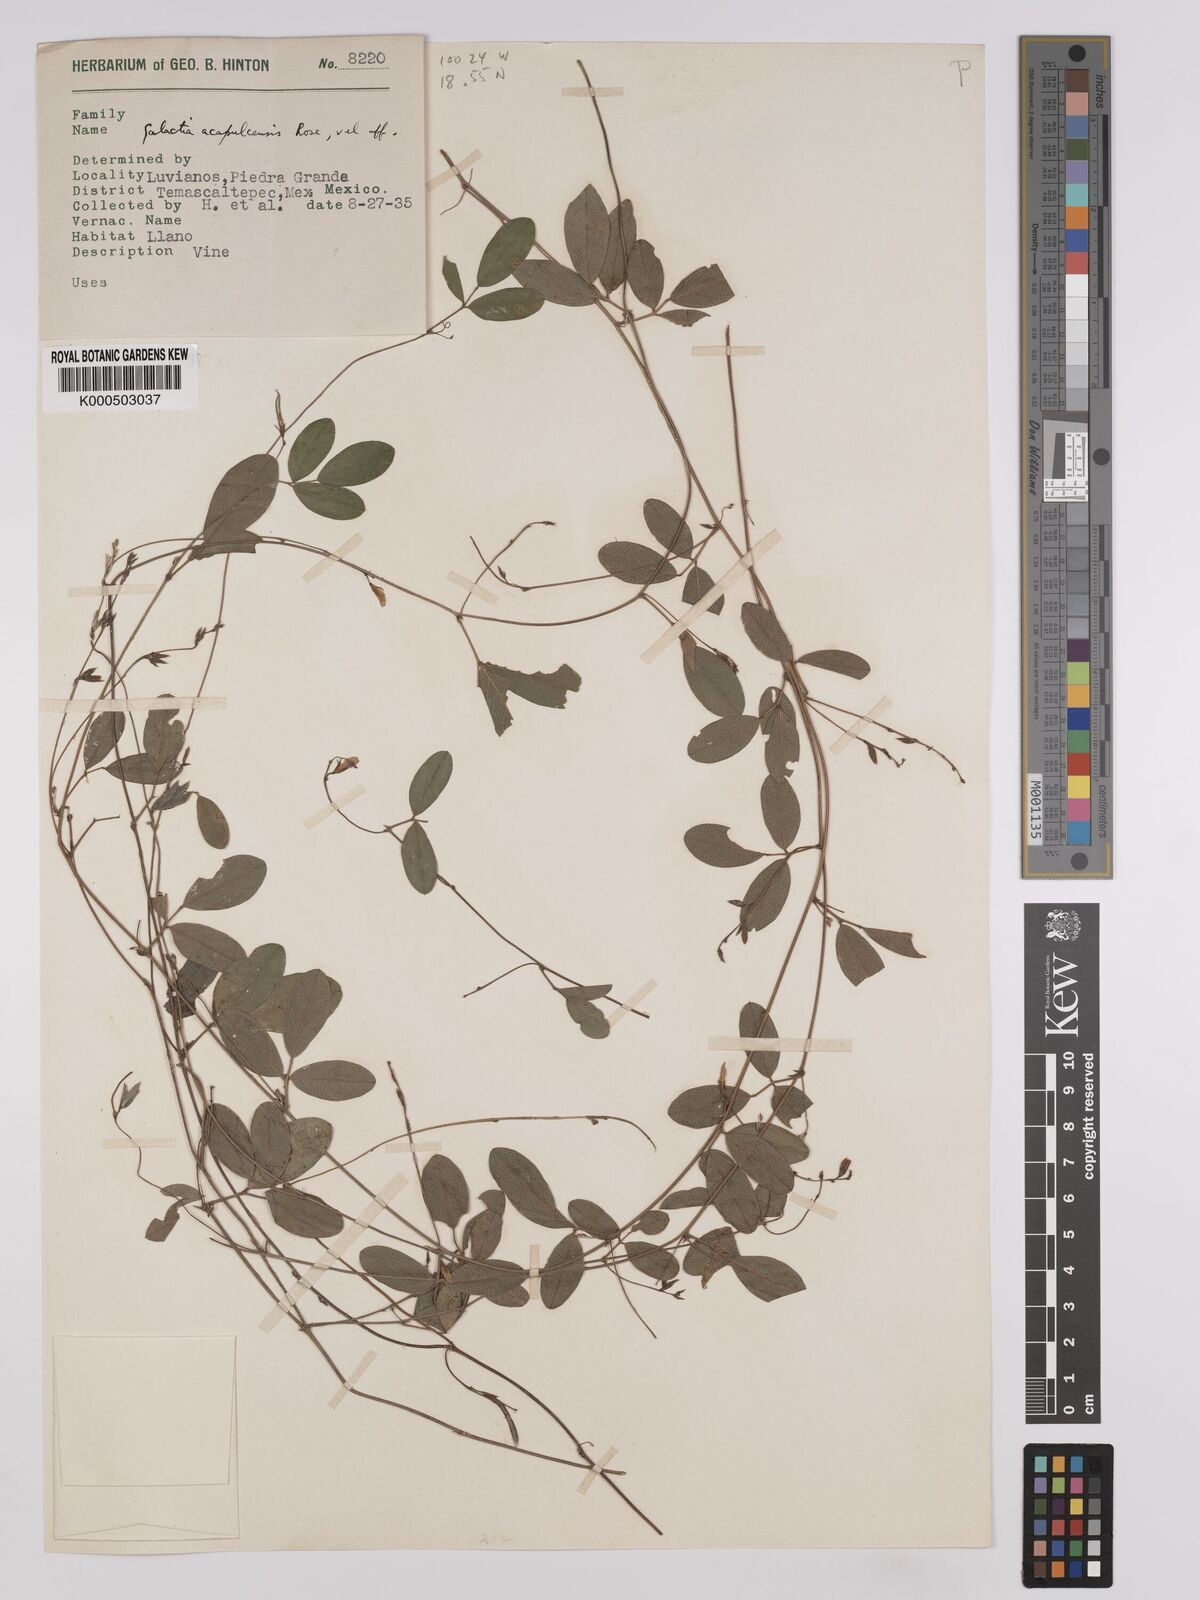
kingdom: Plantae
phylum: Tracheophyta
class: Magnoliopsida
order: Fabales
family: Fabaceae
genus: Galactia
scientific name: Galactia acapulcensis
